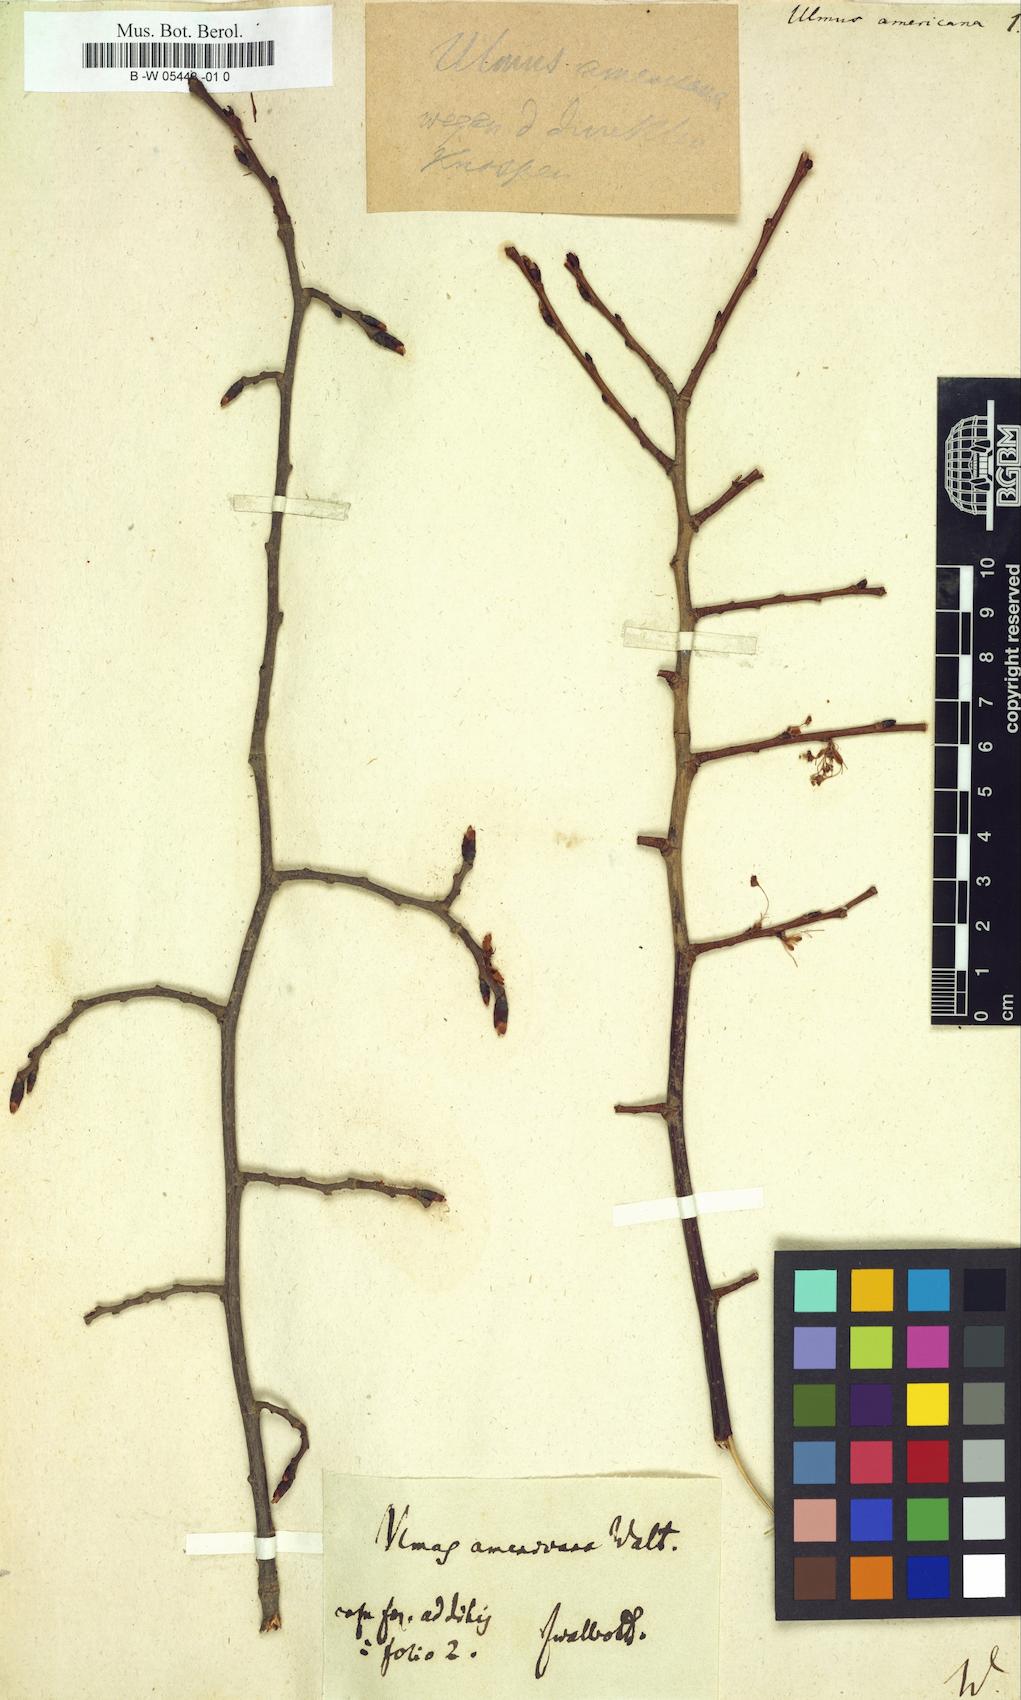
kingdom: Plantae
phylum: Tracheophyta
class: Magnoliopsida
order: Rosales
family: Ulmaceae
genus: Ulmus
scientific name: Ulmus americana
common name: American elm
